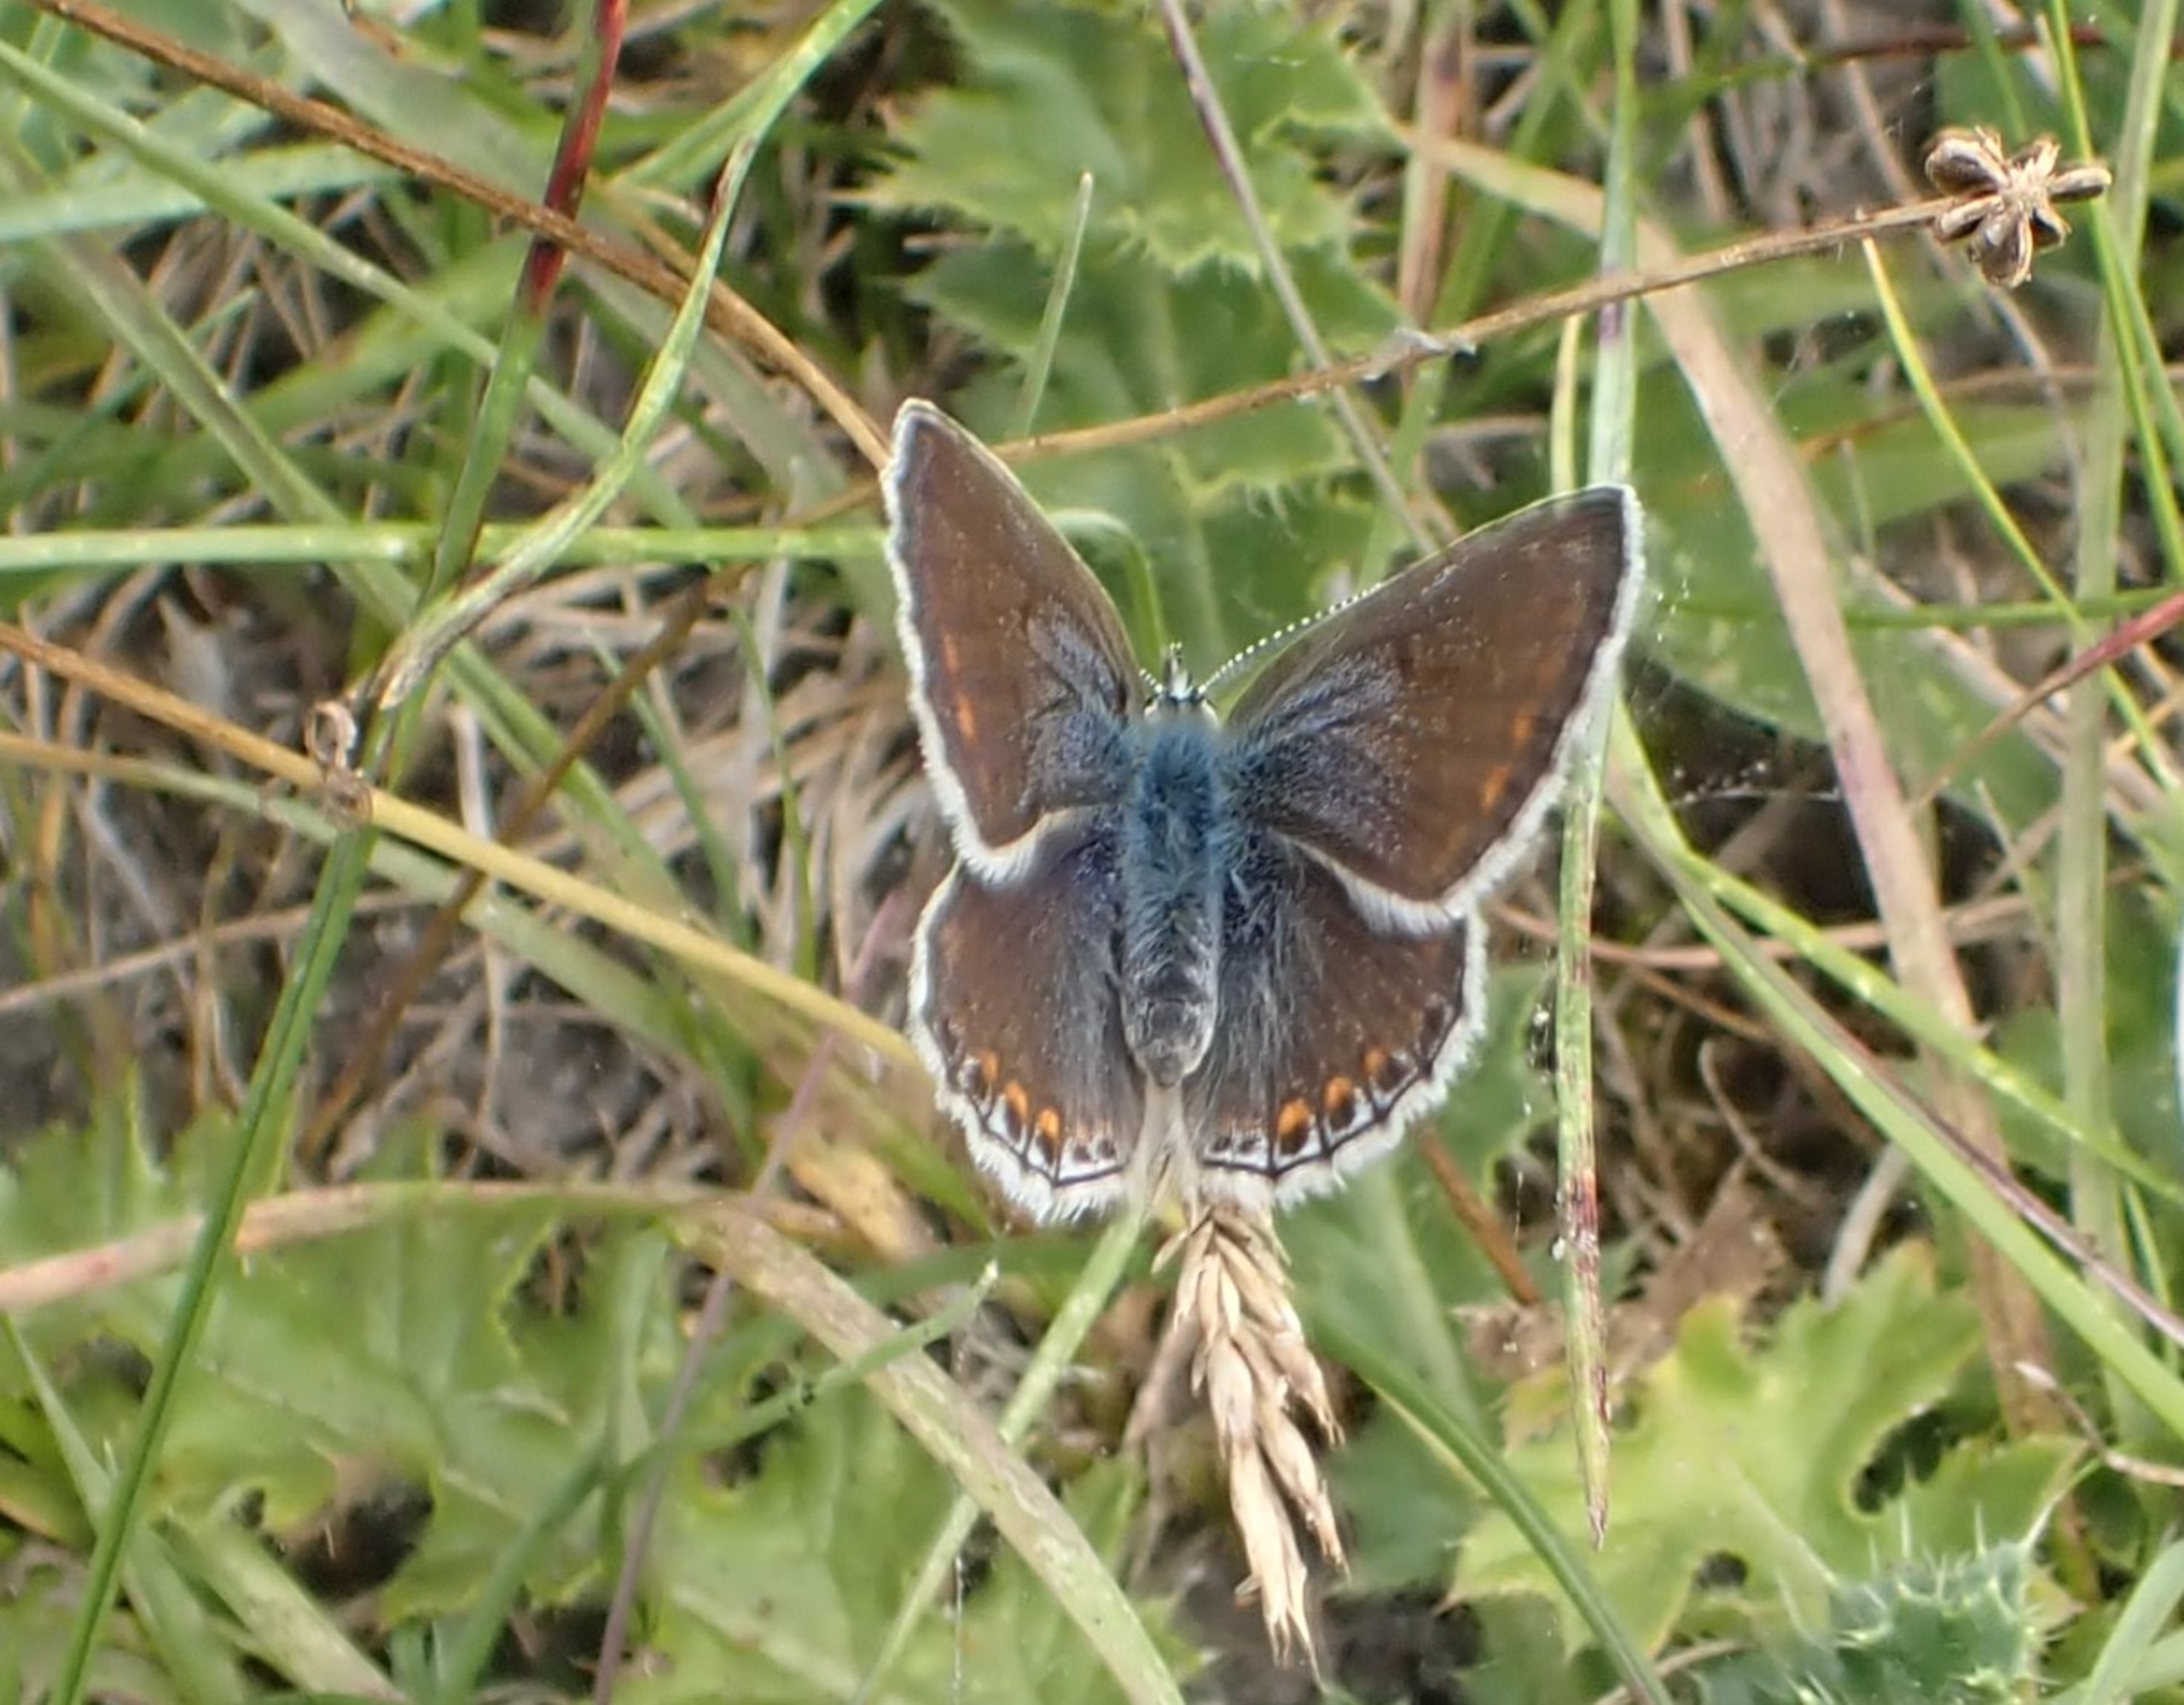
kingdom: Animalia
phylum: Arthropoda
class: Insecta
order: Lepidoptera
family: Lycaenidae
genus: Polyommatus
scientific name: Polyommatus icarus
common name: Almindelig blåfugl
